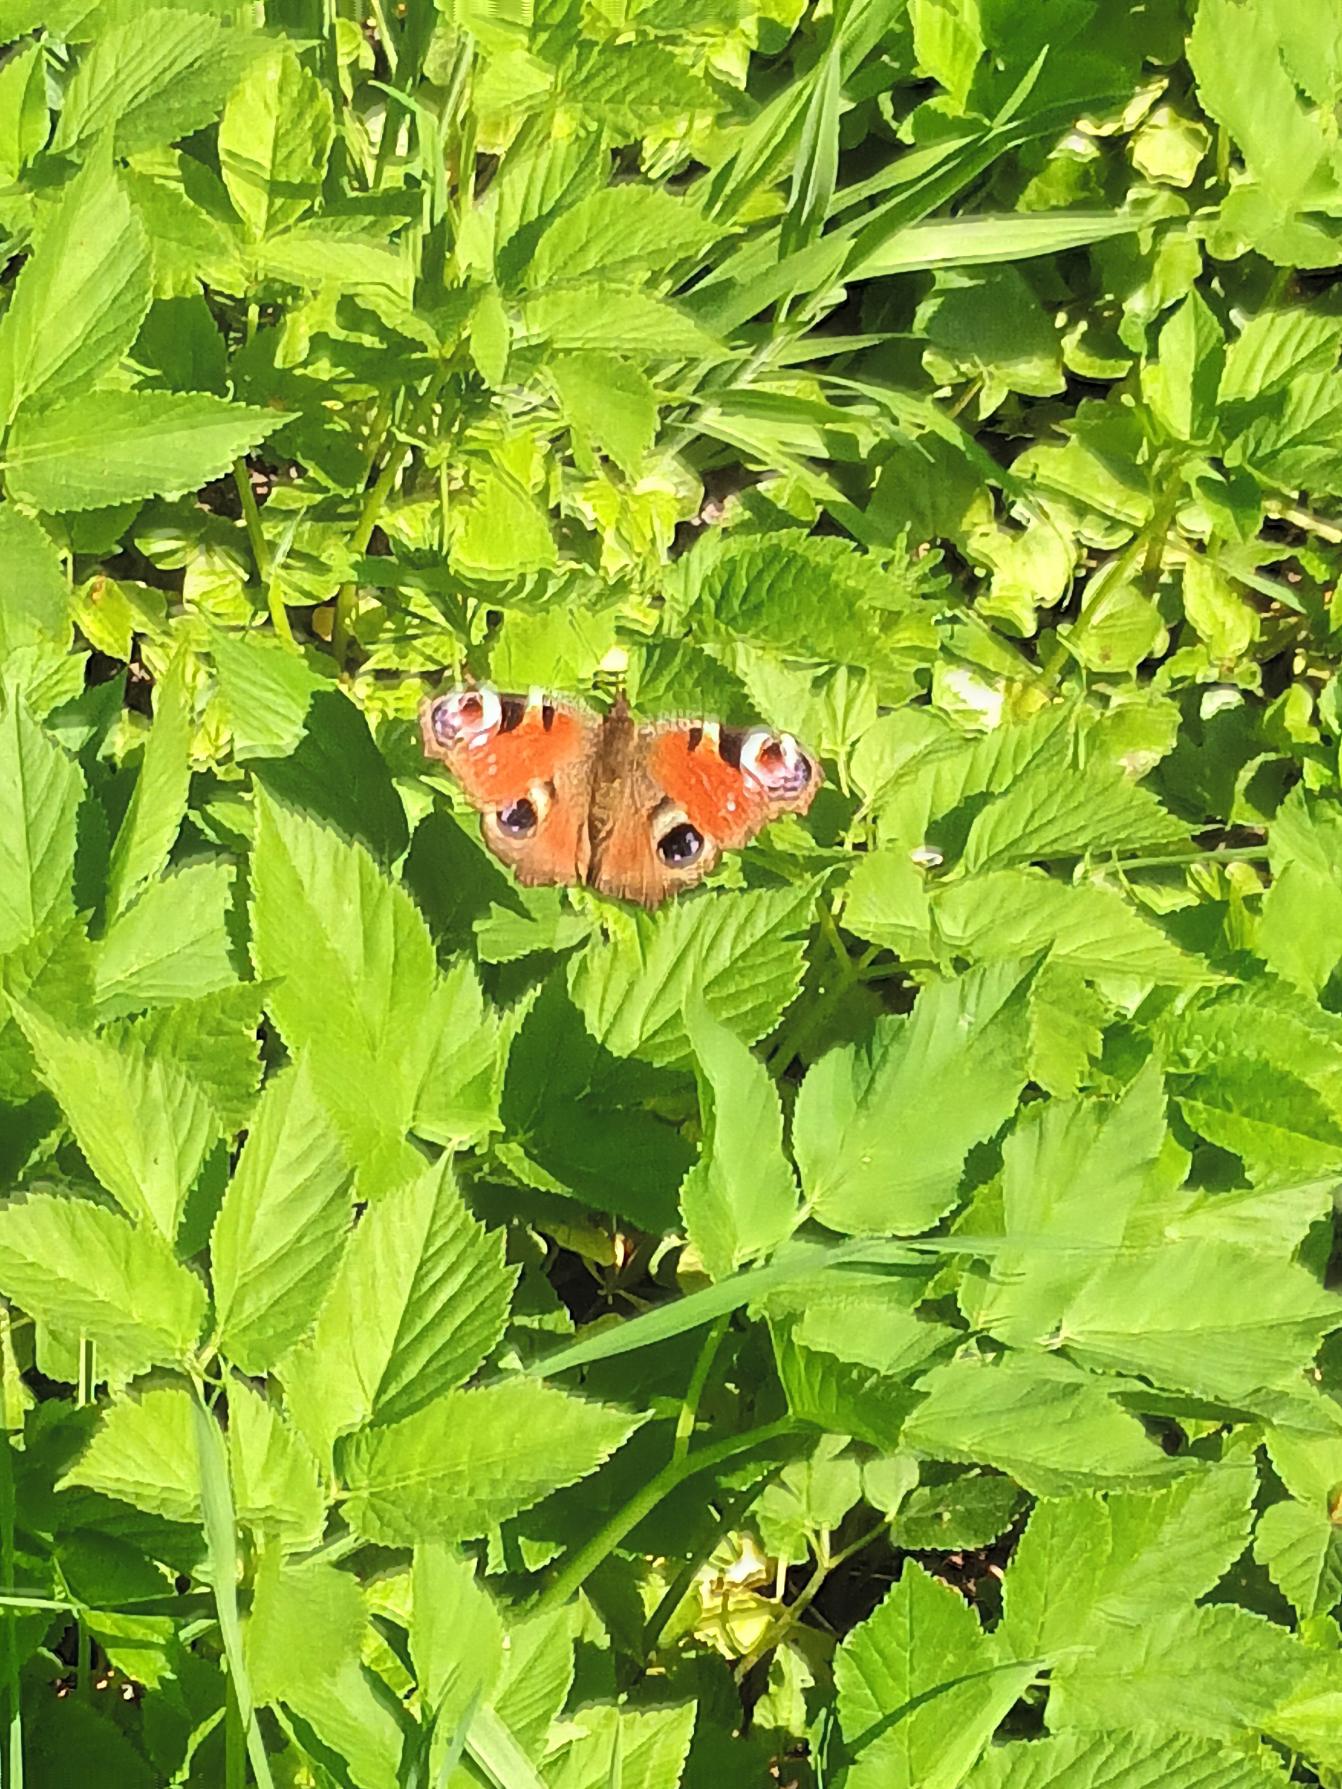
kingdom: Animalia
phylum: Arthropoda
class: Insecta
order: Lepidoptera
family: Nymphalidae
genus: Aglais
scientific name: Aglais io
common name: Dagpåfugleøje
